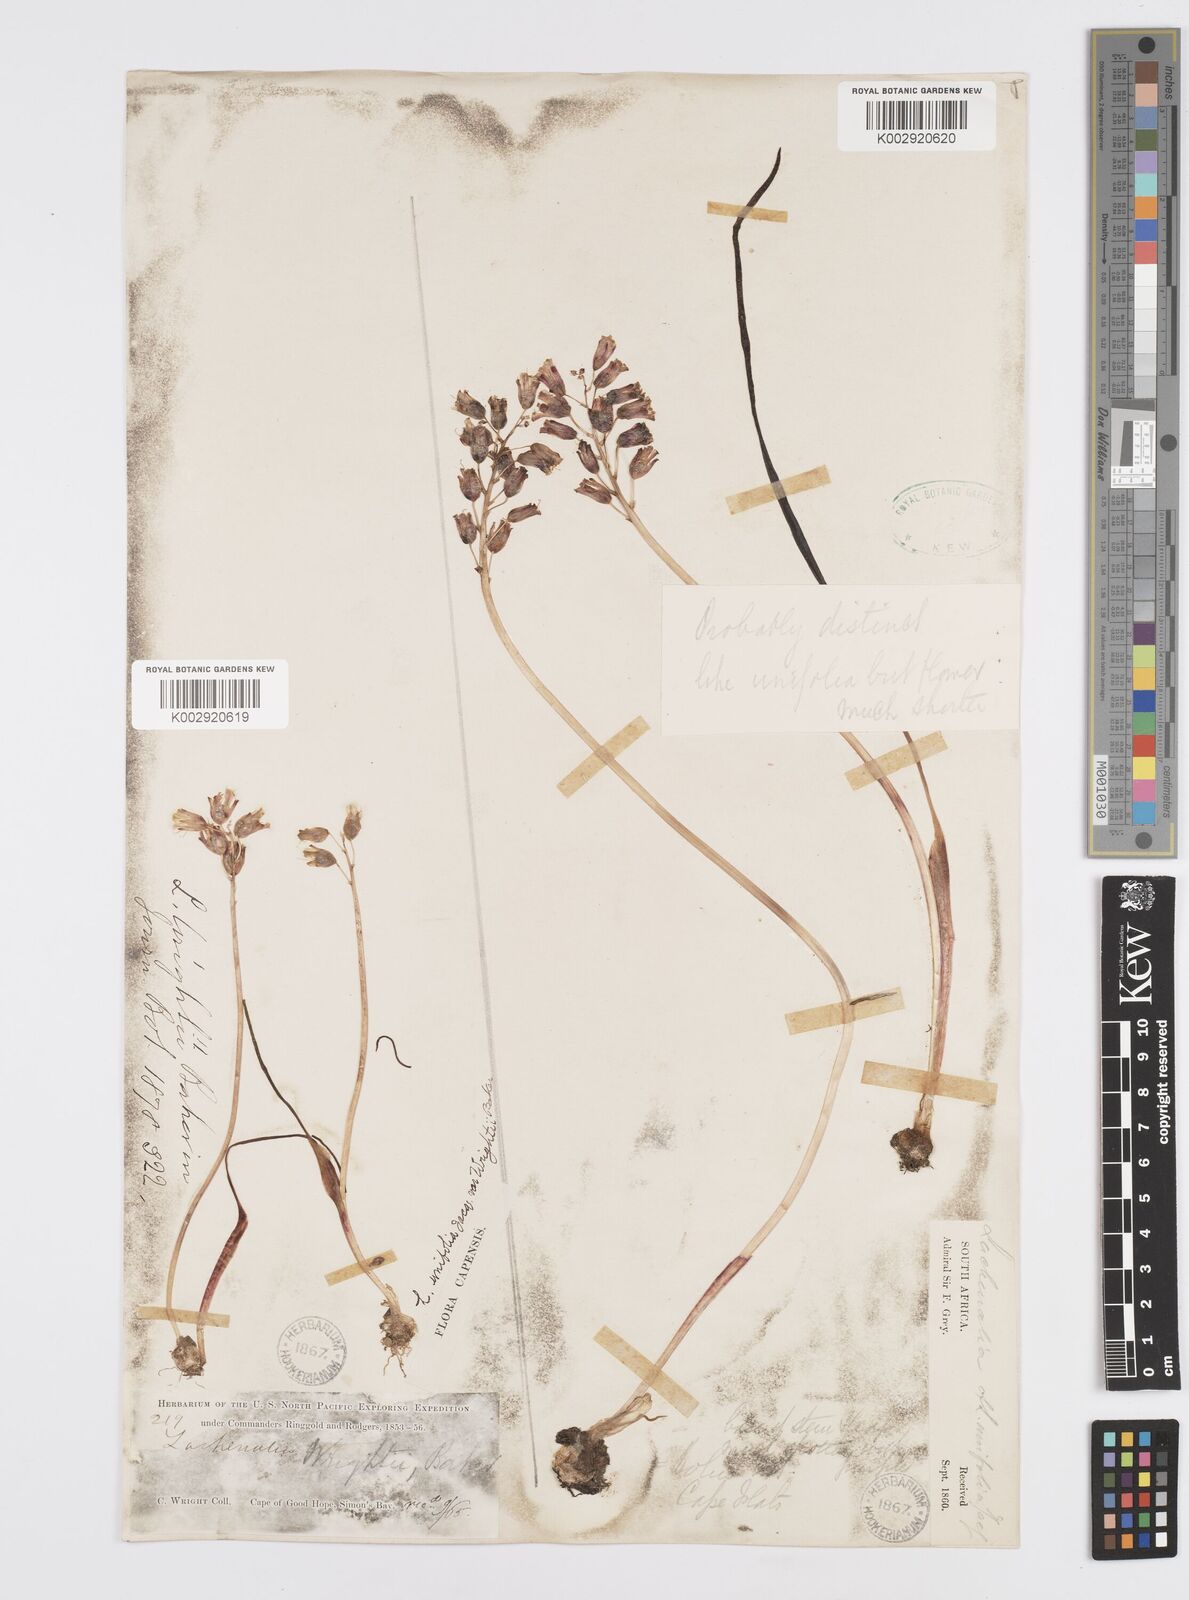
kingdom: Plantae
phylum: Tracheophyta
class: Liliopsida
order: Asparagales
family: Asparagaceae
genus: Lachenalia
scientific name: Lachenalia unifolia
